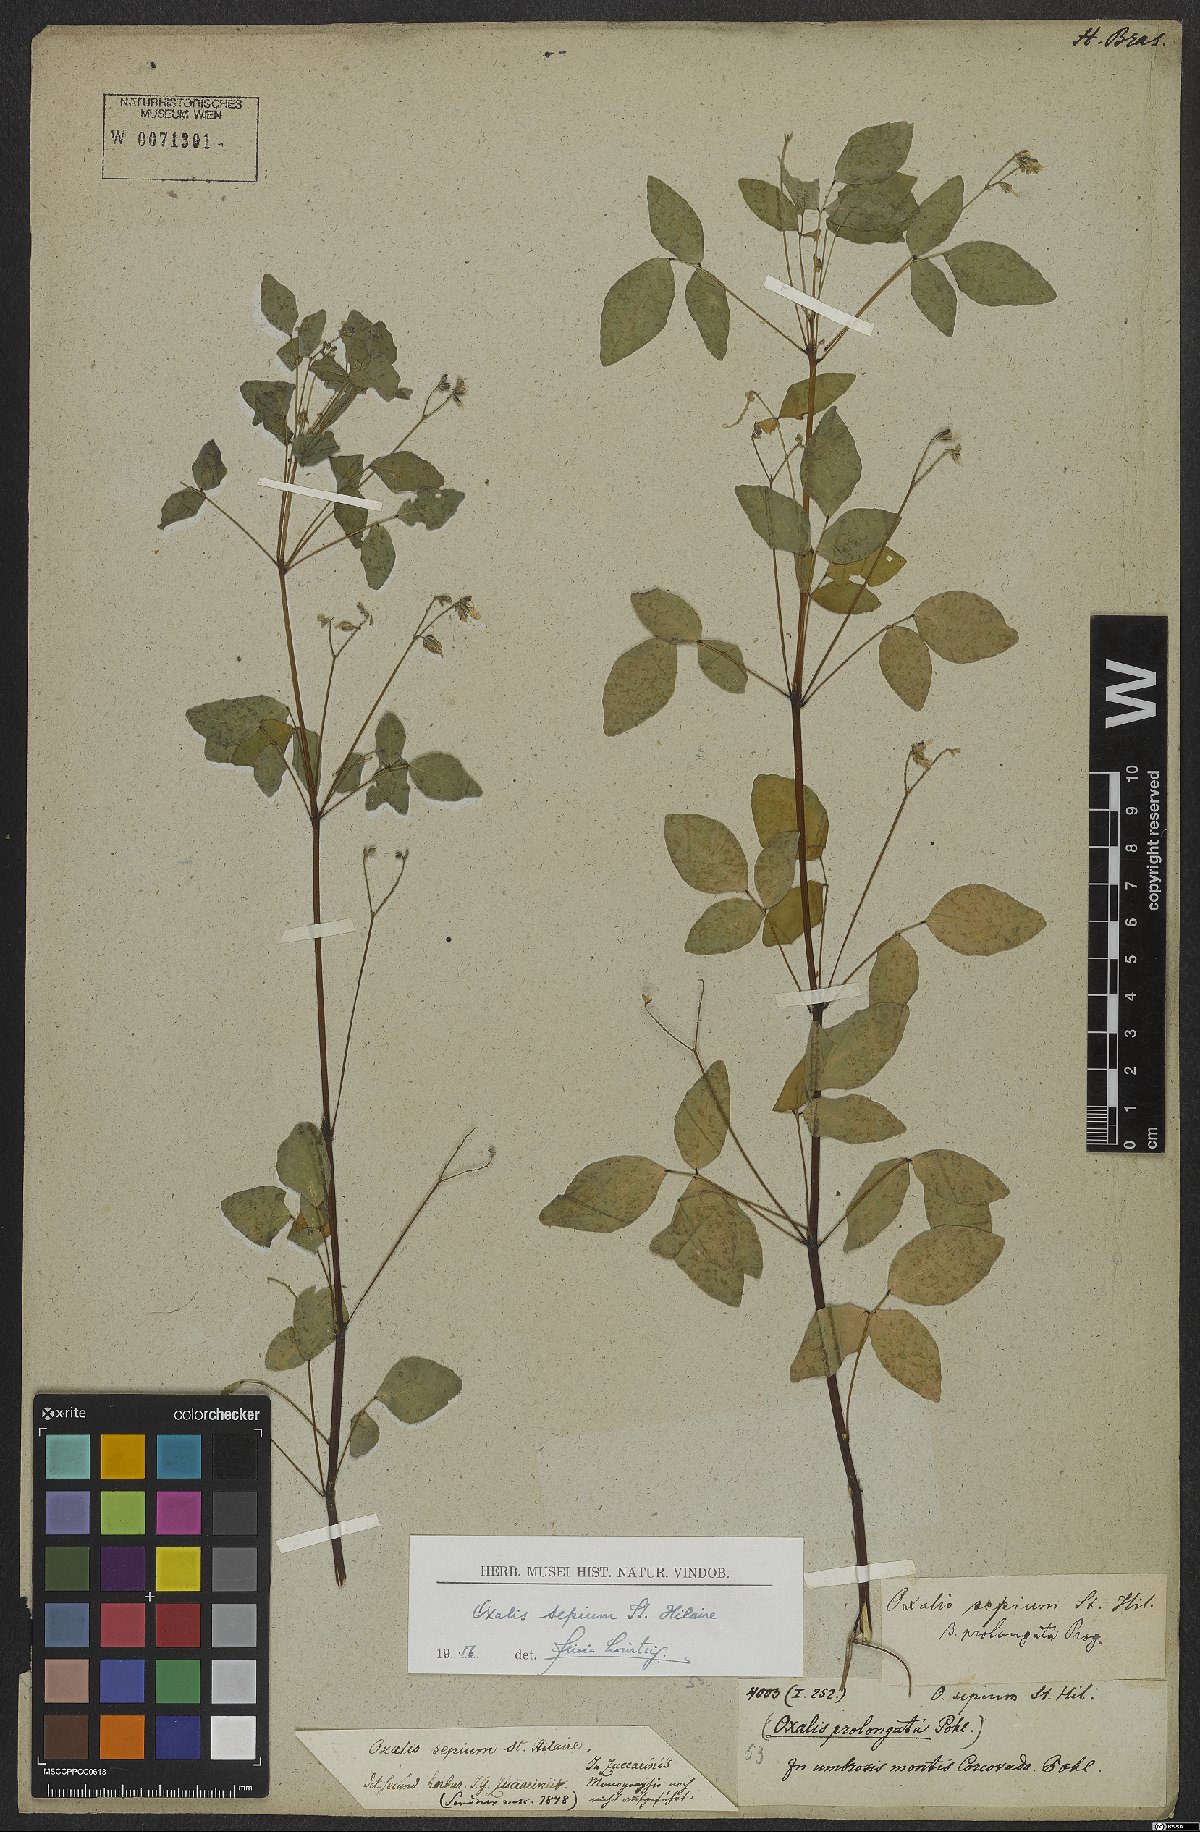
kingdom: Plantae
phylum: Tracheophyta
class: Magnoliopsida
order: Oxalidales
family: Oxalidaceae
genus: Oxalis
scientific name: Oxalis sepium
